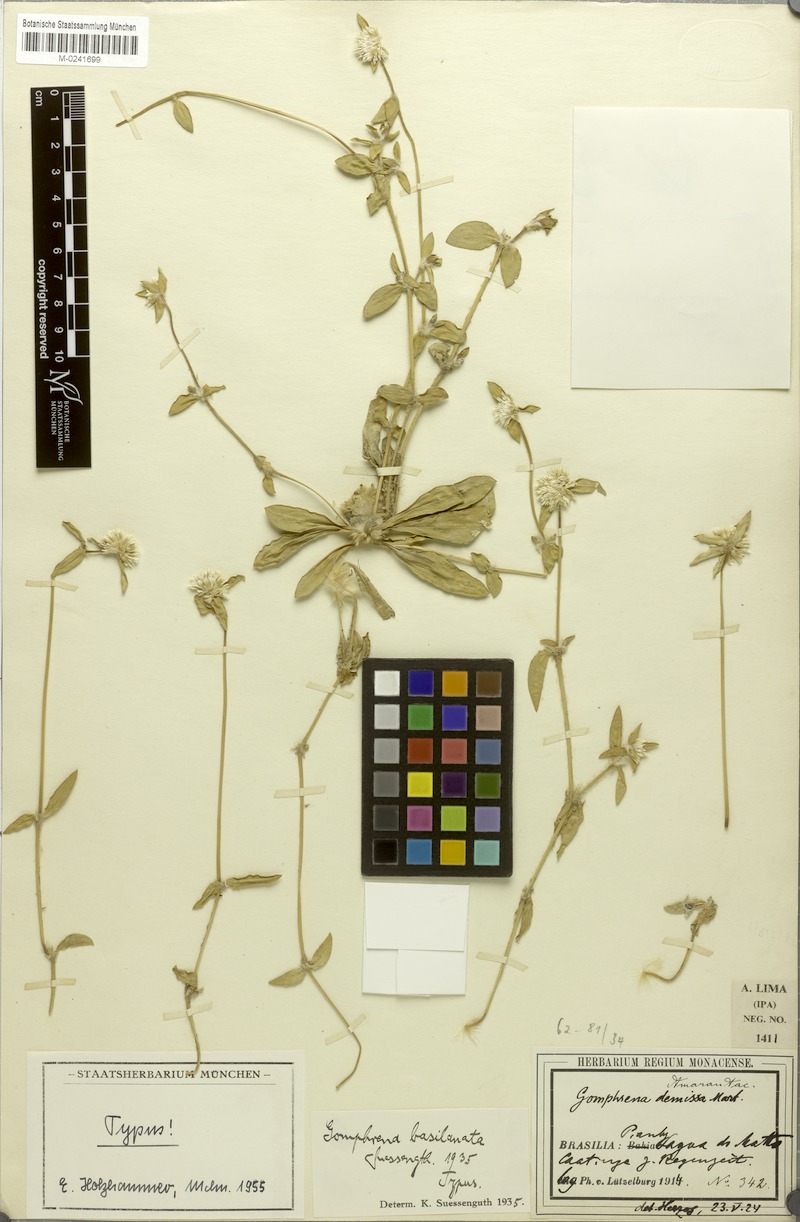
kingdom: Plantae
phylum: Tracheophyta
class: Magnoliopsida
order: Caryophyllales
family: Amaranthaceae
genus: Gomphrena
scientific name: Gomphrena basilanata
